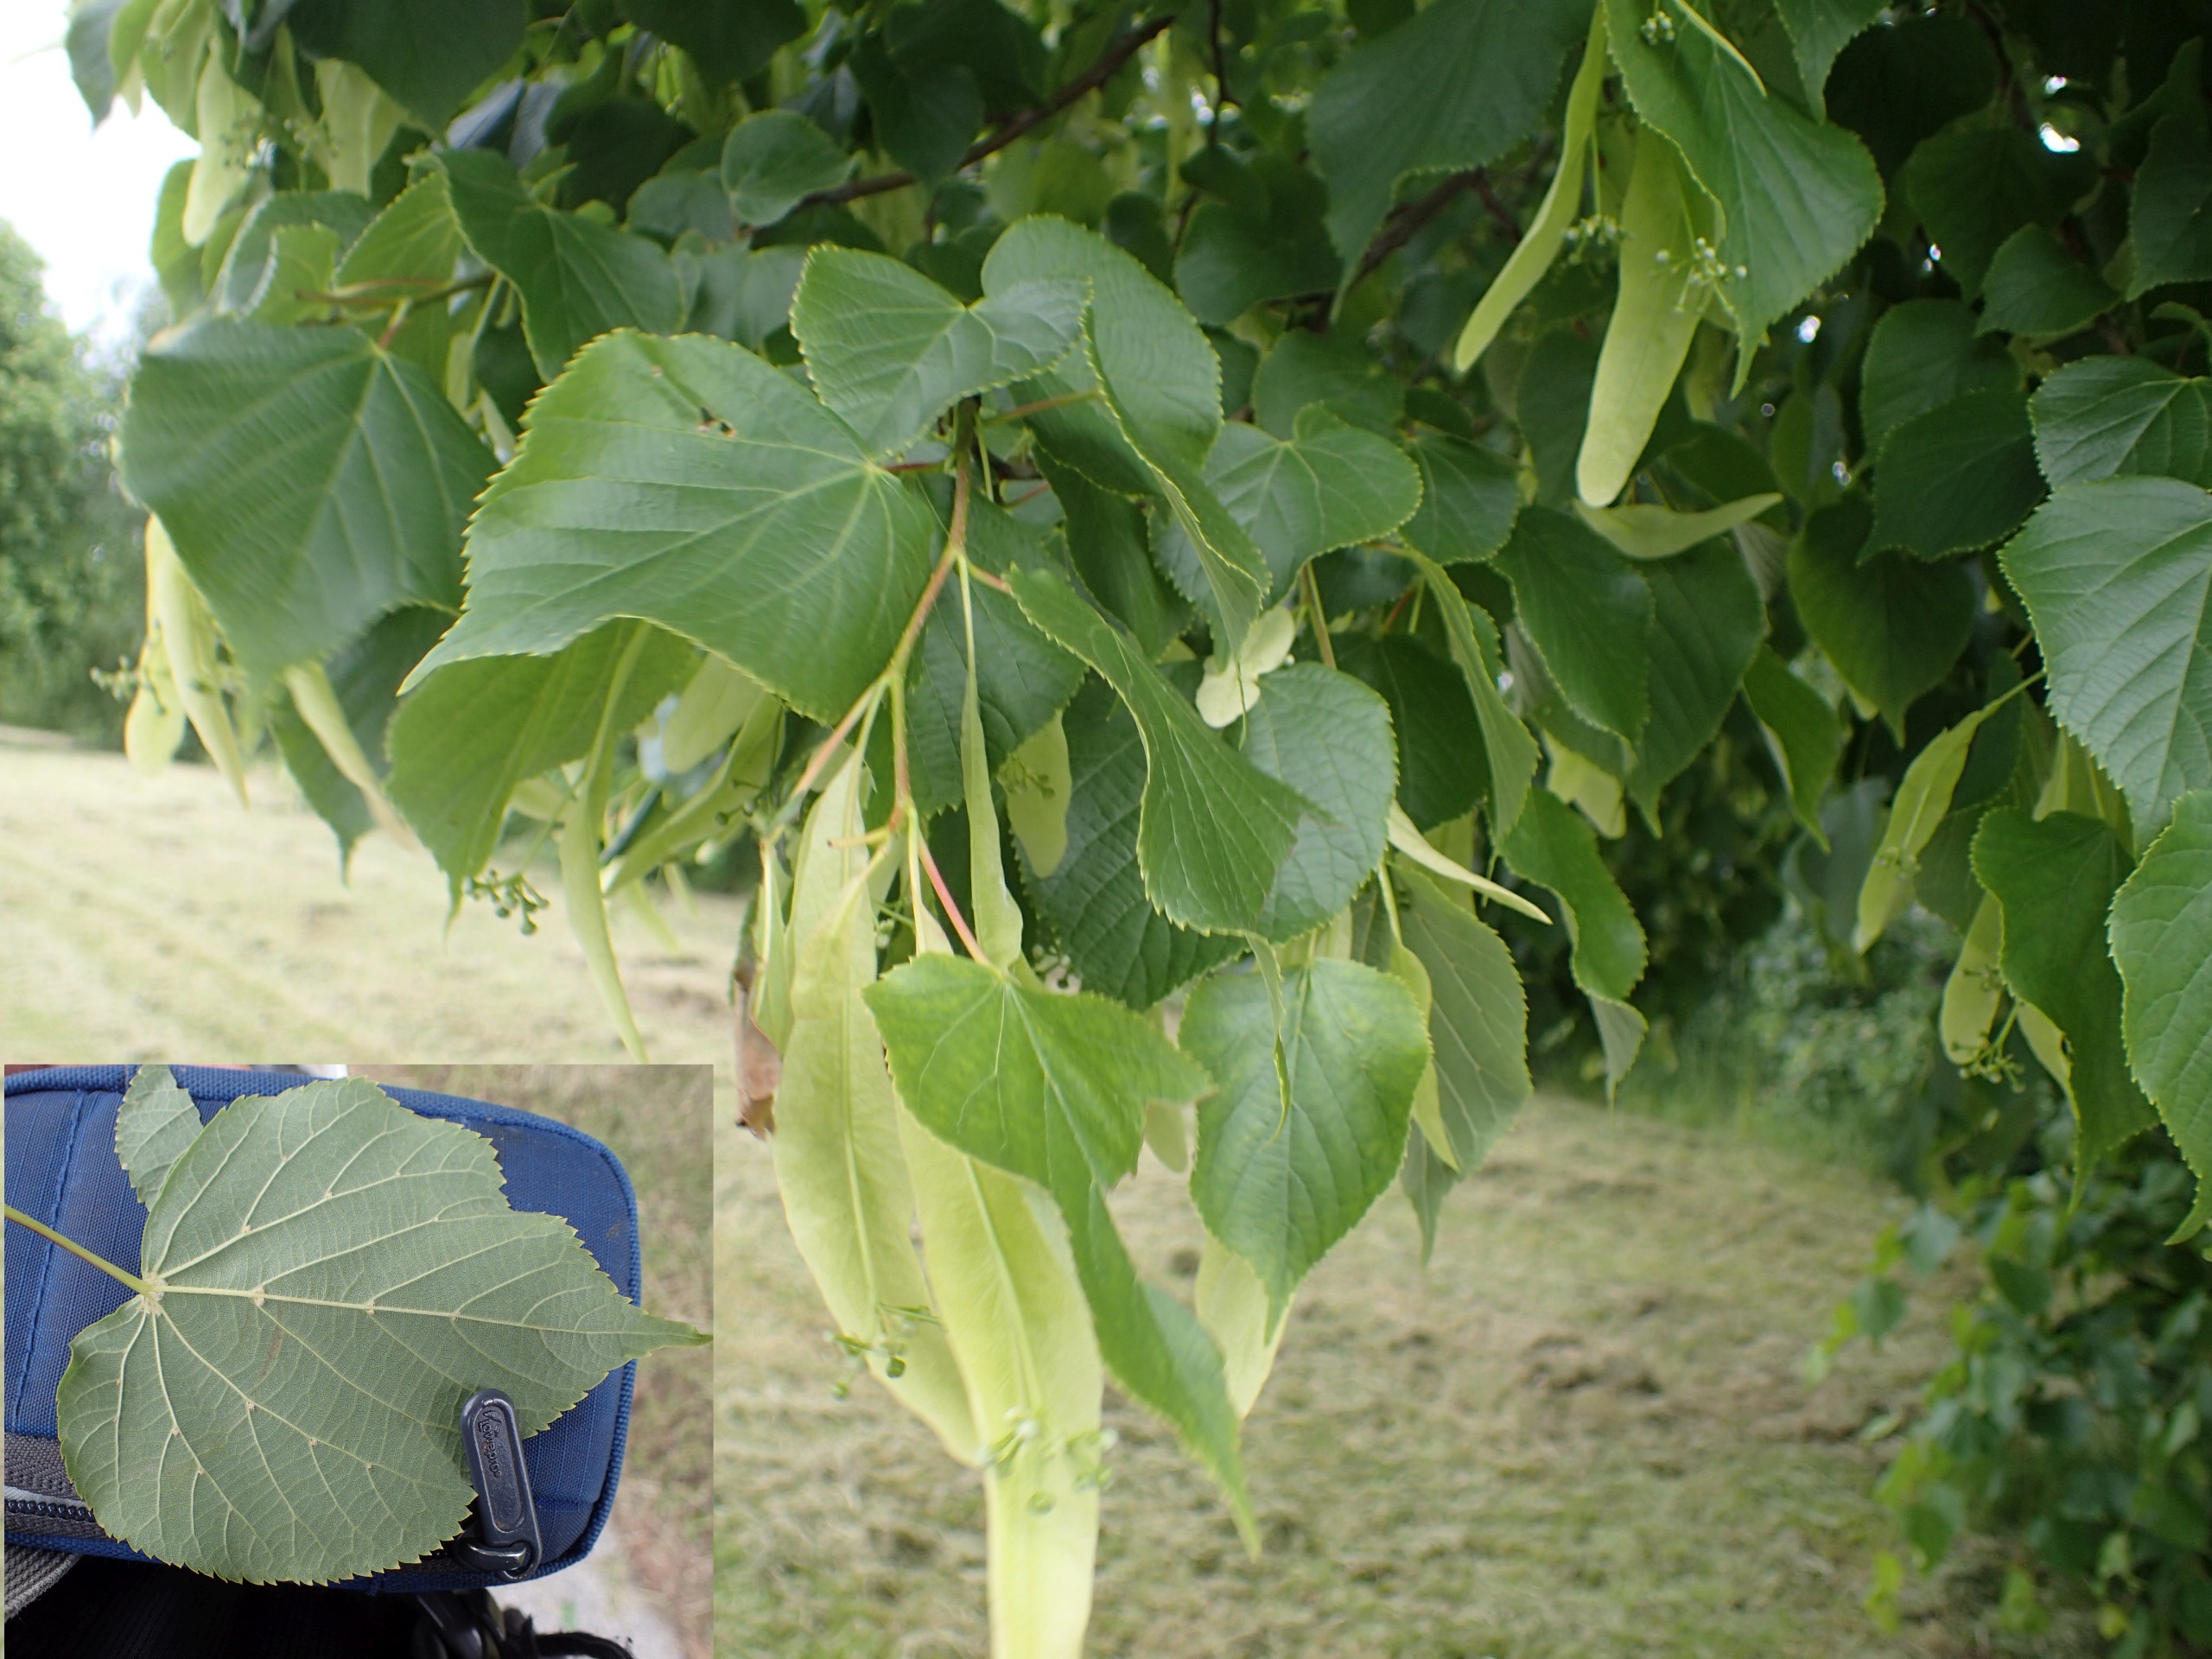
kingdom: Plantae
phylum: Tracheophyta
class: Magnoliopsida
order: Malvales
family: Malvaceae
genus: Tilia
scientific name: Tilia europaea
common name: Park-lind
